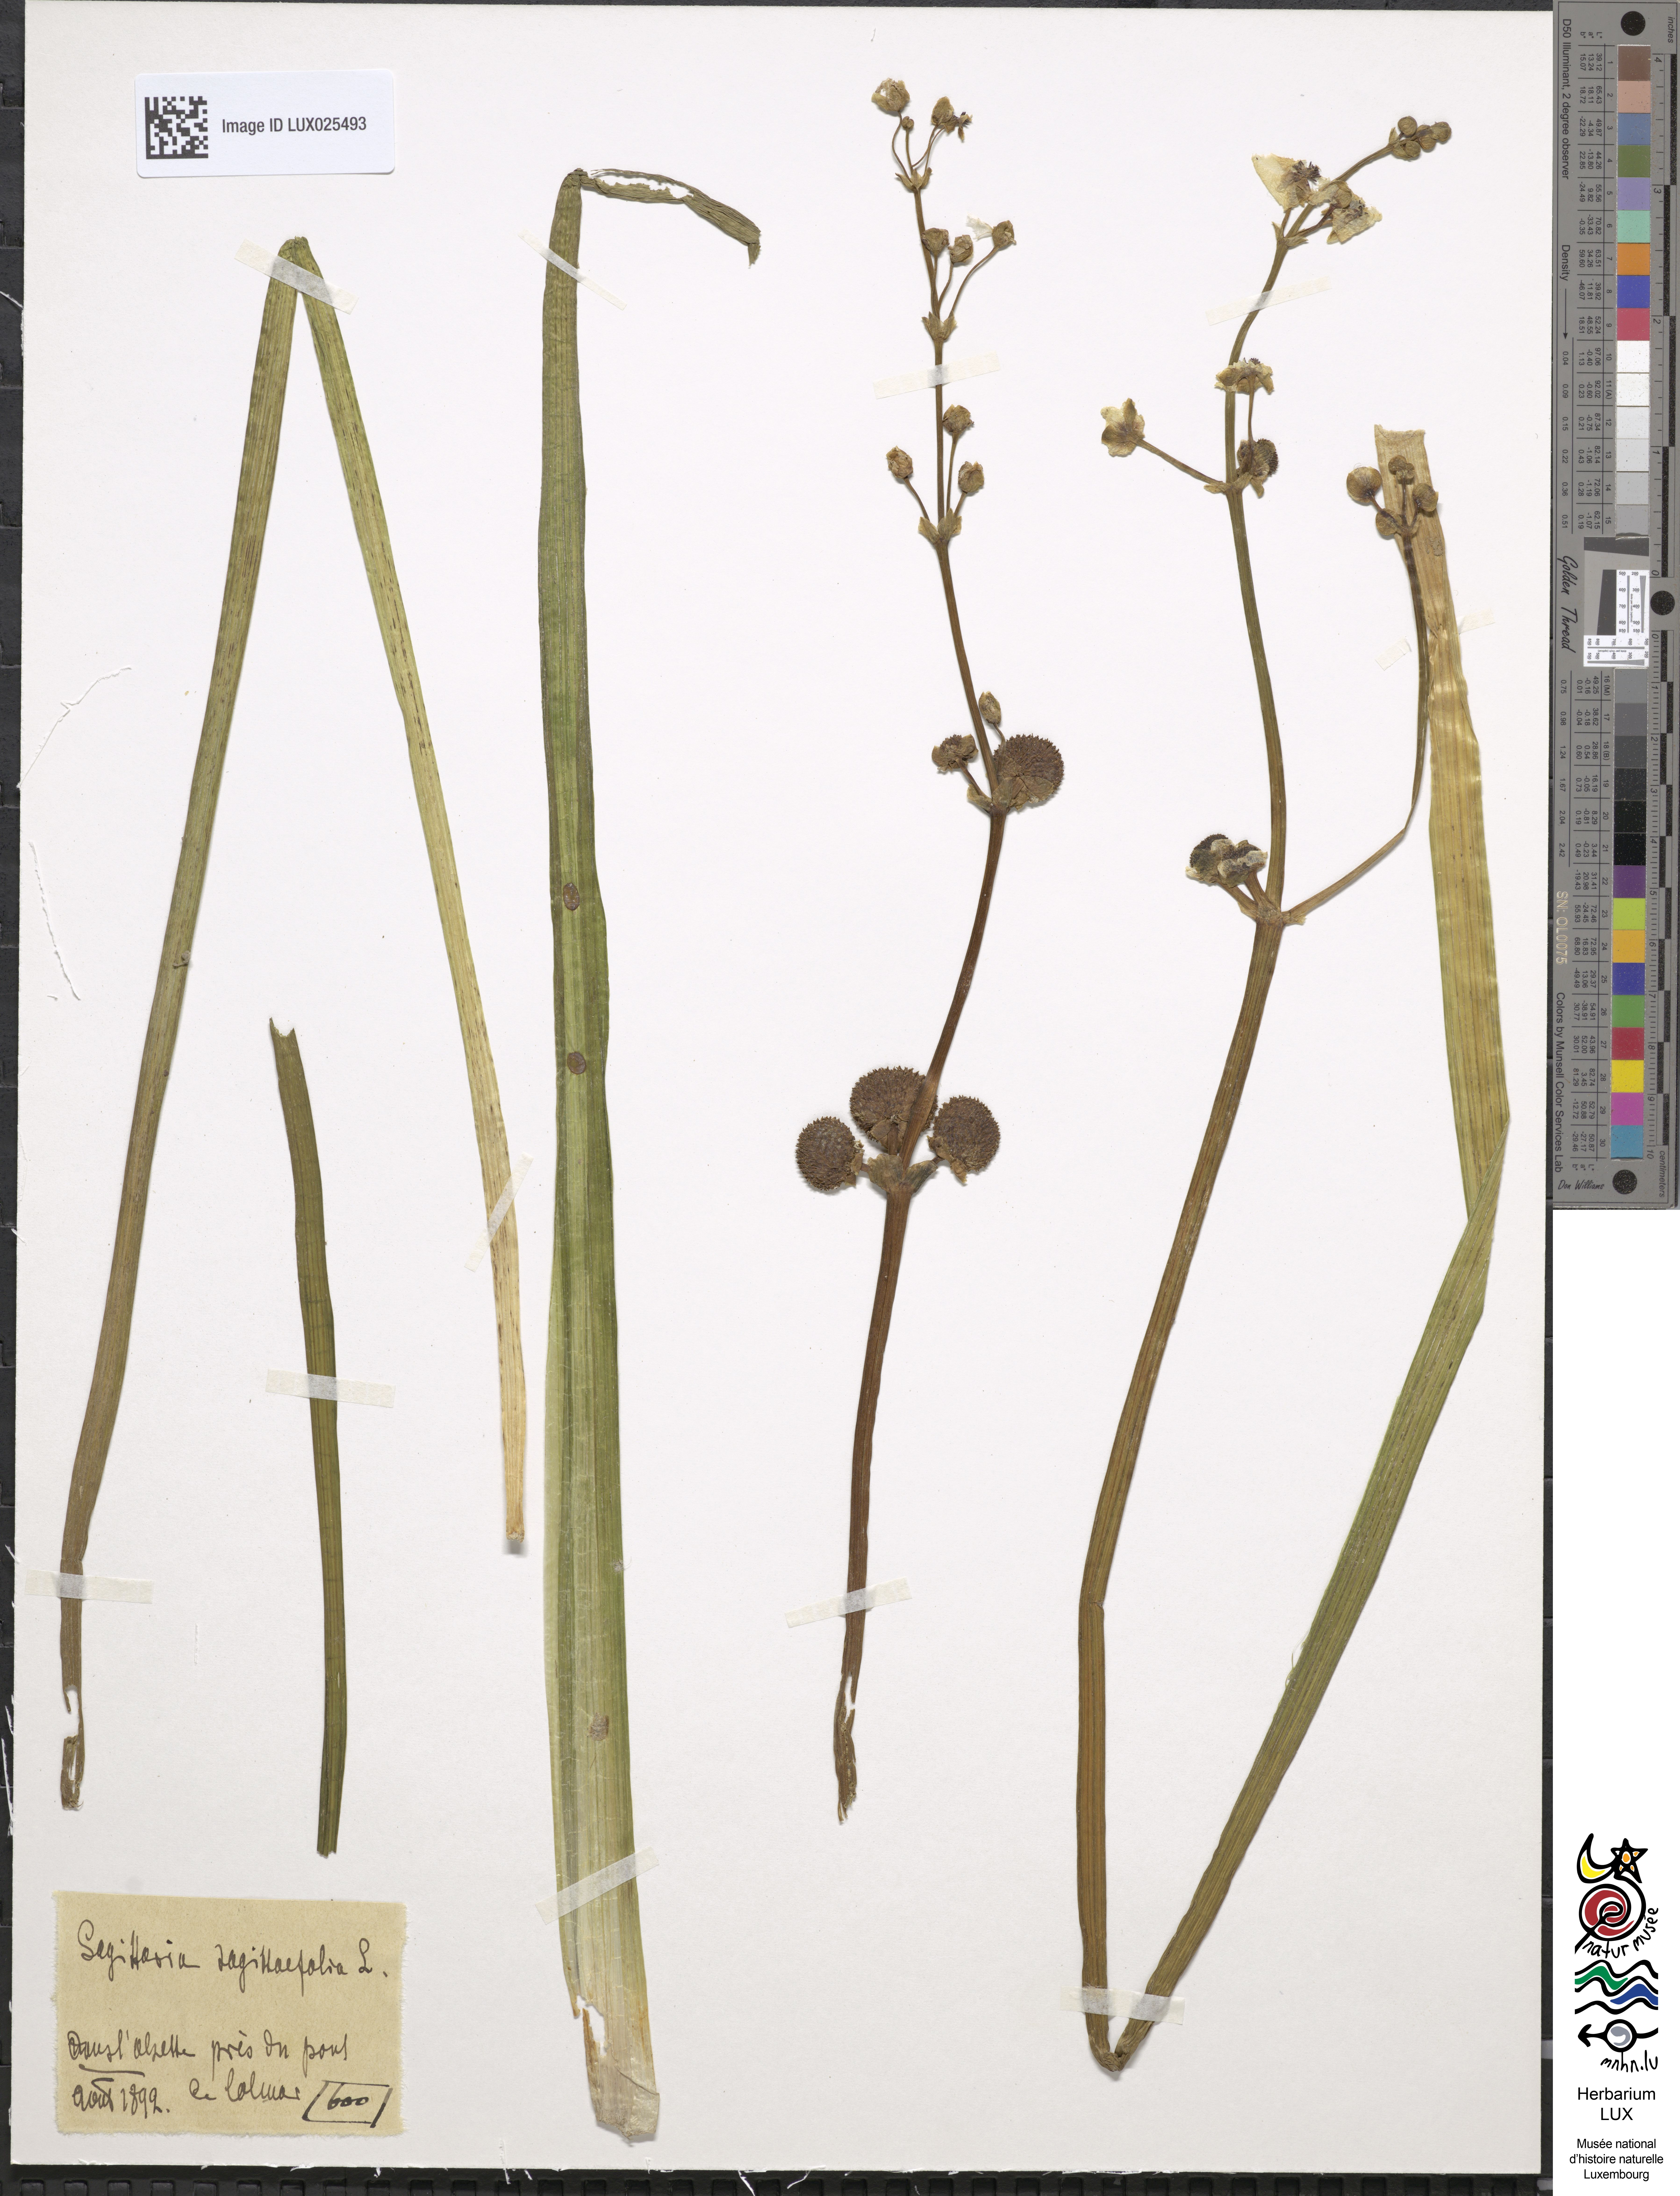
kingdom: Plantae
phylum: Tracheophyta
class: Liliopsida
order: Alismatales
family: Alismataceae
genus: Sagittaria
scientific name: Sagittaria sagittifolia
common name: Arrowhead
